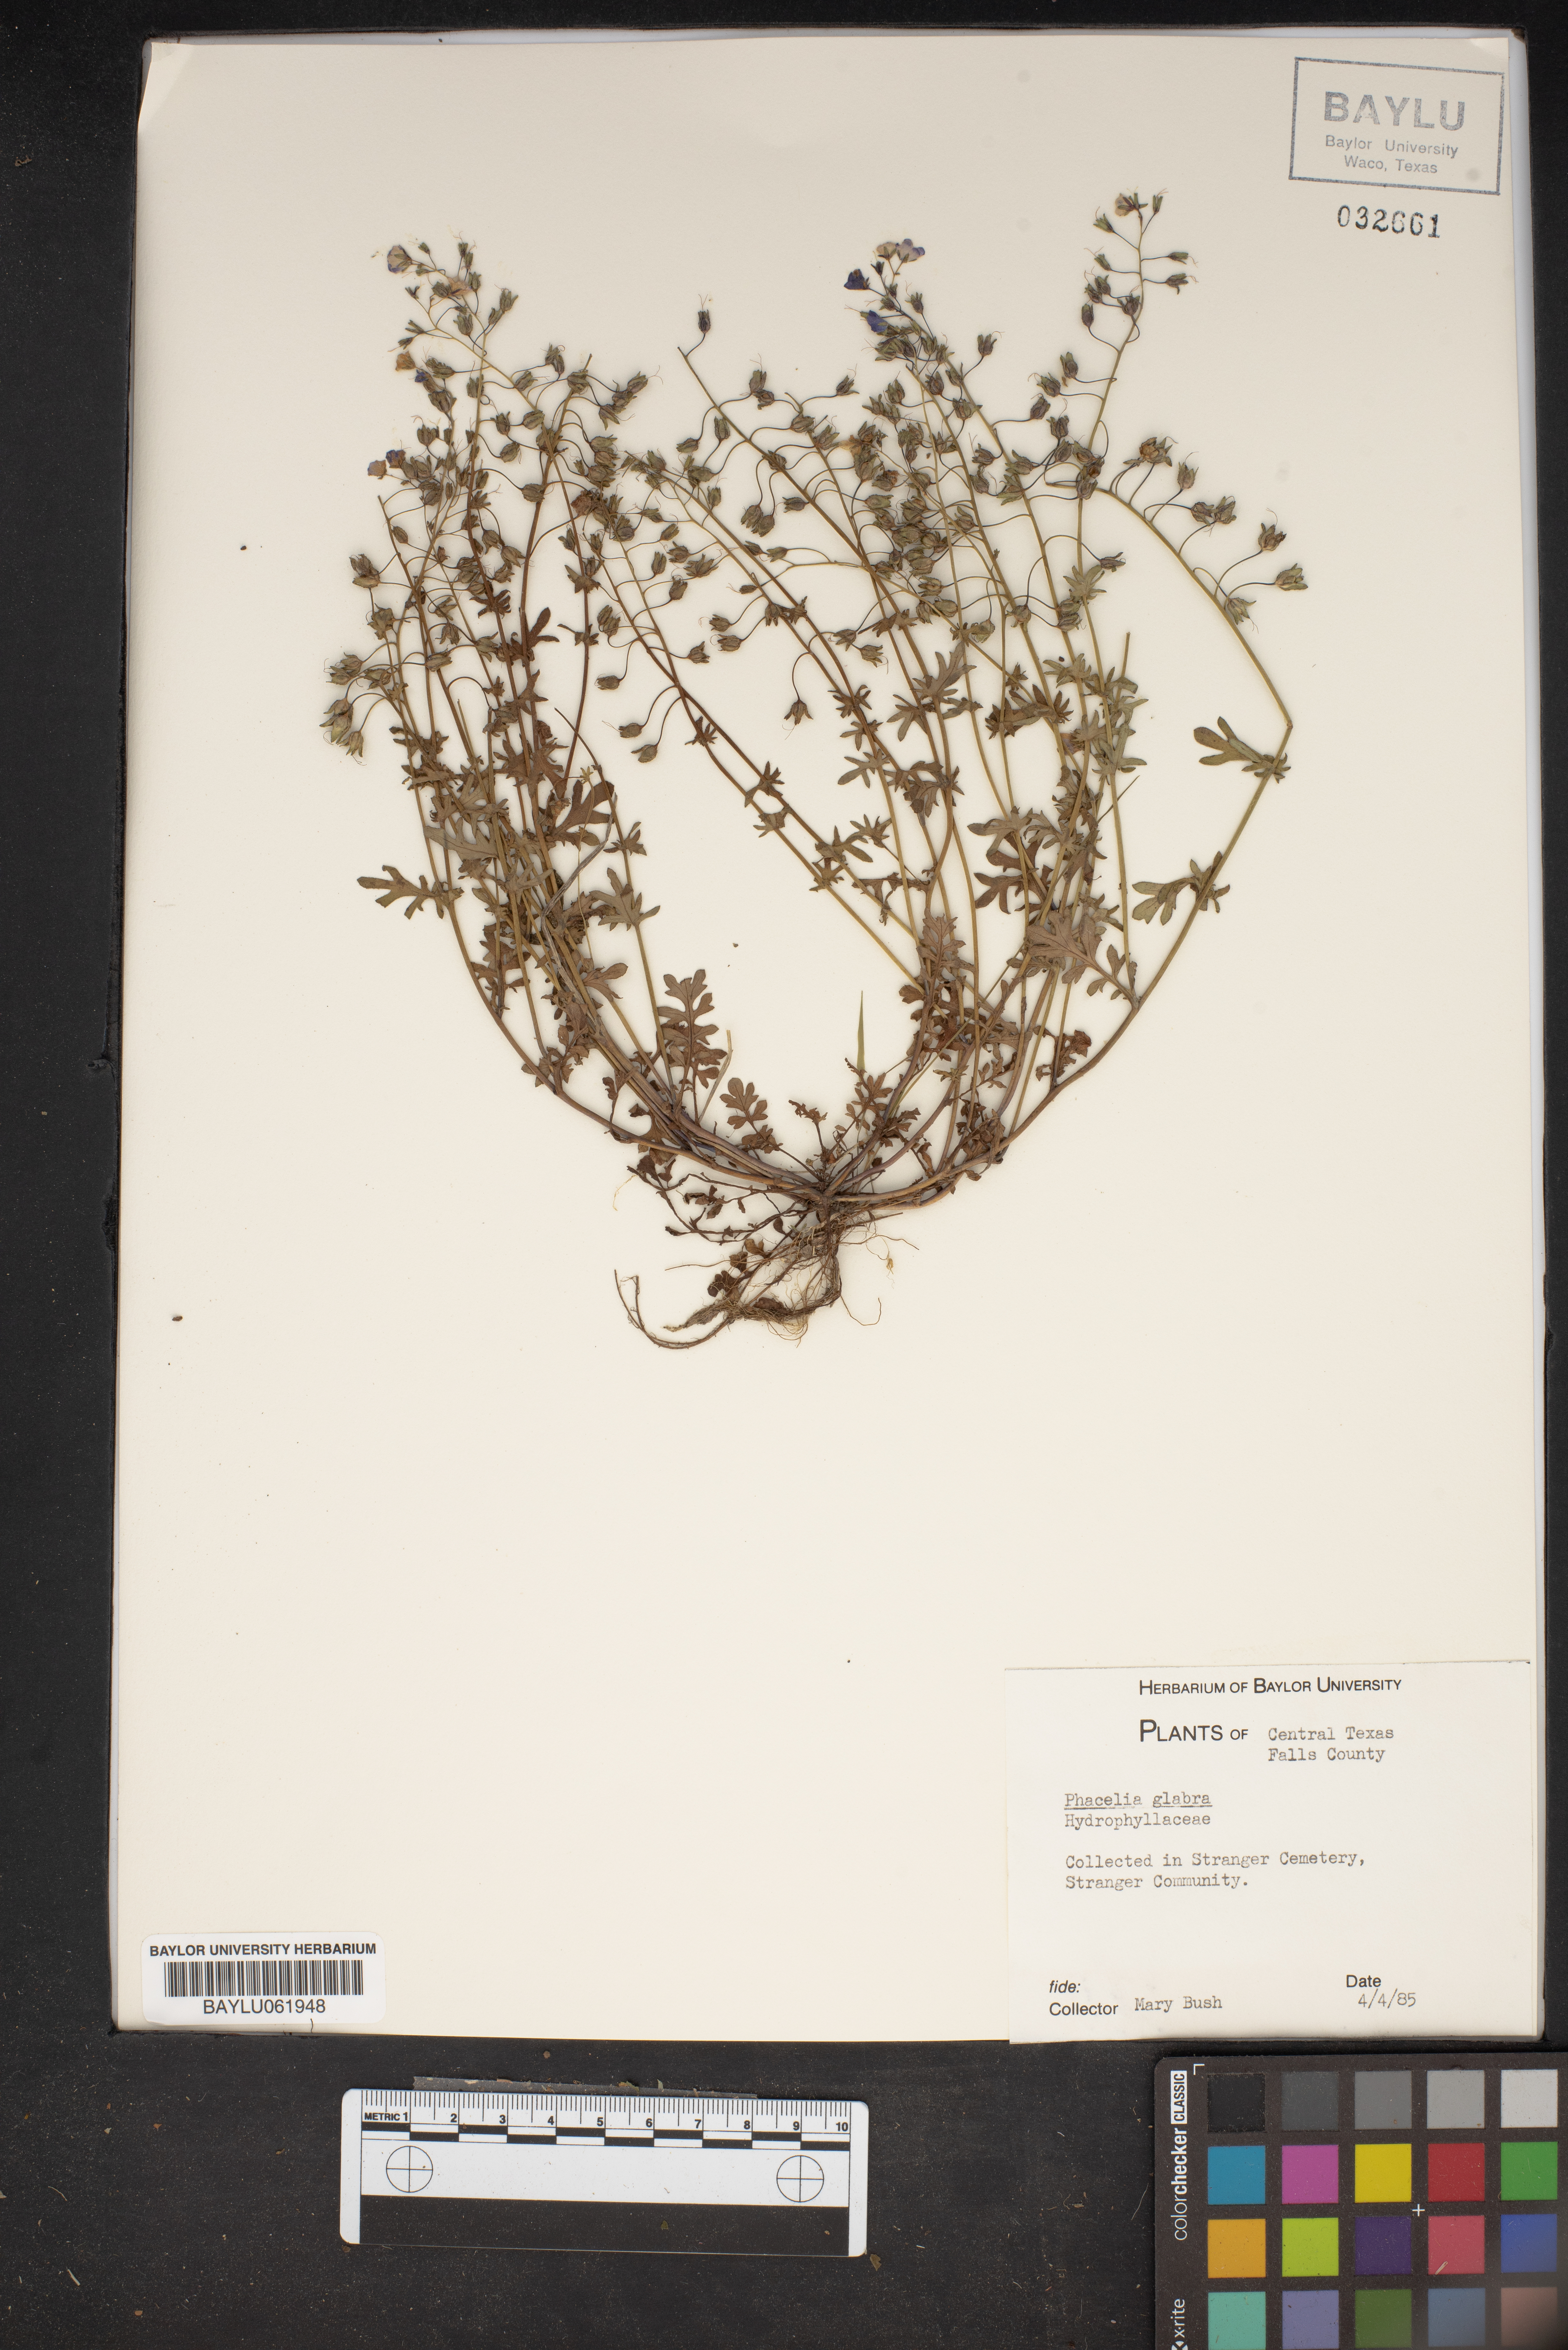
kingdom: Plantae
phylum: Tracheophyta
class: Magnoliopsida
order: Boraginales
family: Hydrophyllaceae
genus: Phacelia
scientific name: Phacelia glabra
